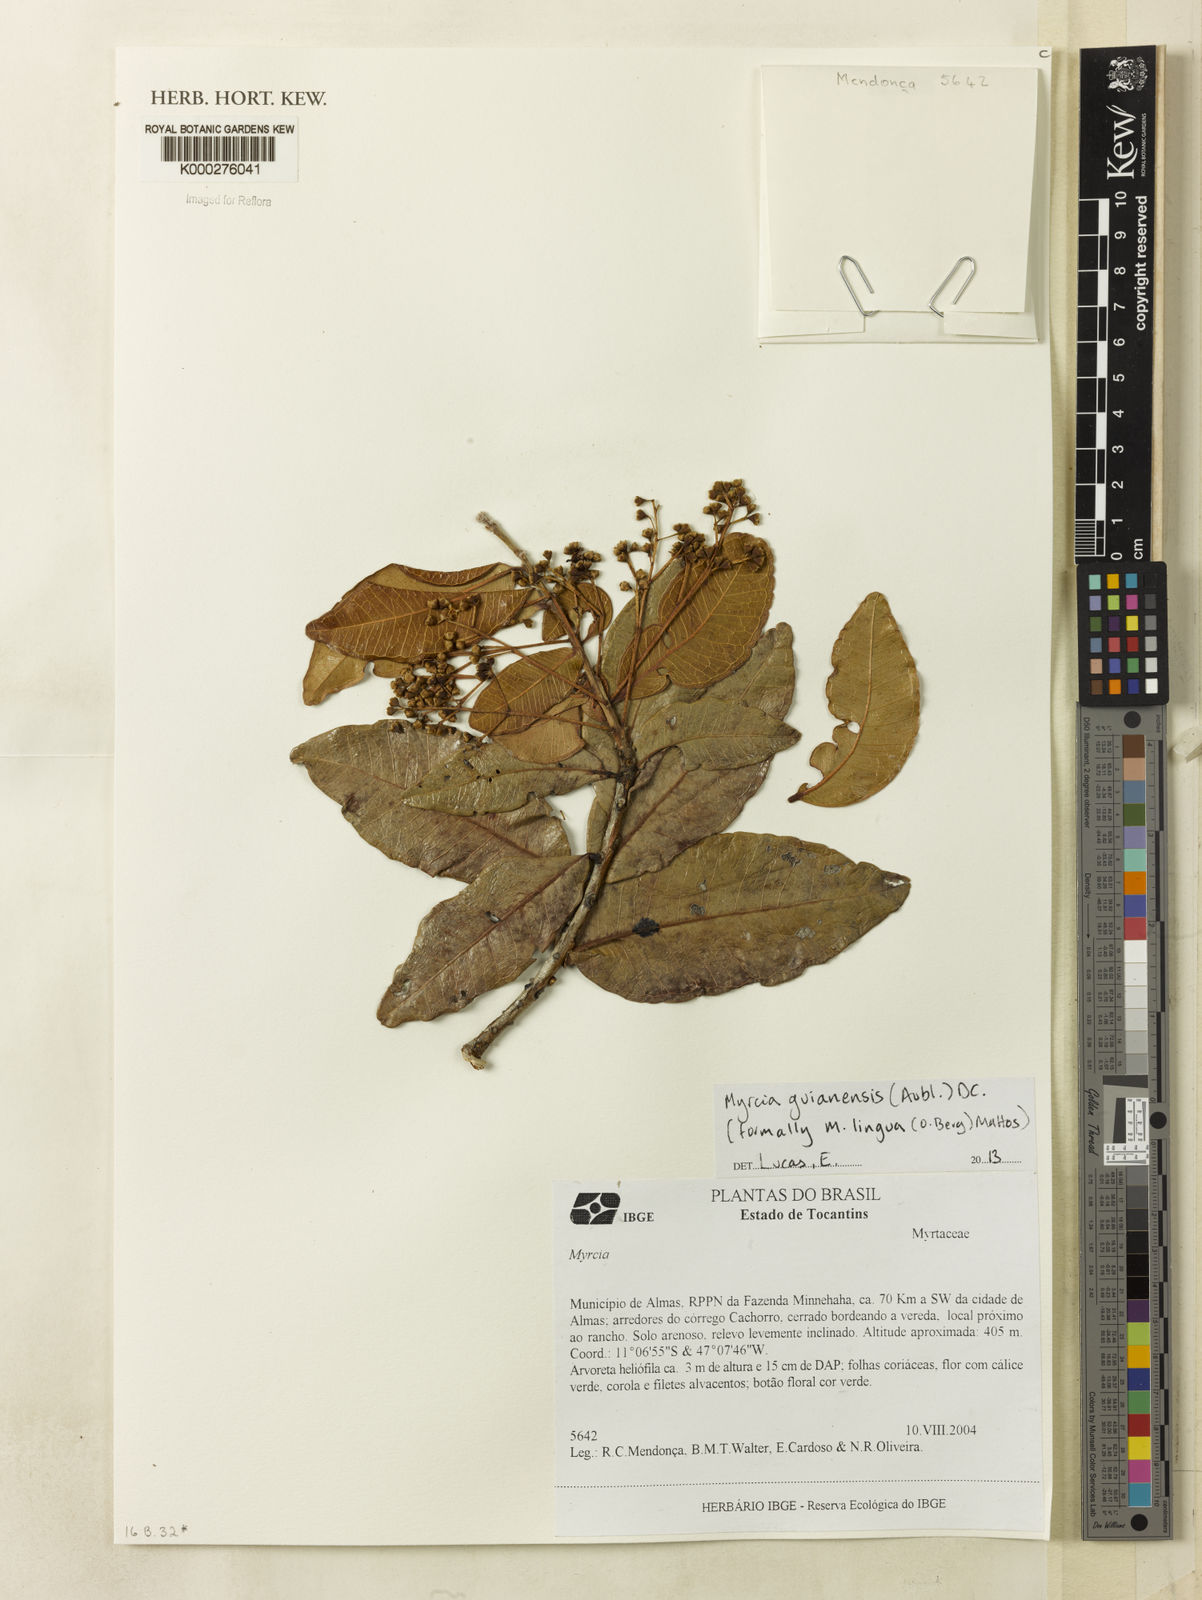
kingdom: Plantae
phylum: Tracheophyta
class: Magnoliopsida
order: Myrtales
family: Myrtaceae
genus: Myrcia
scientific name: Myrcia guianensis
